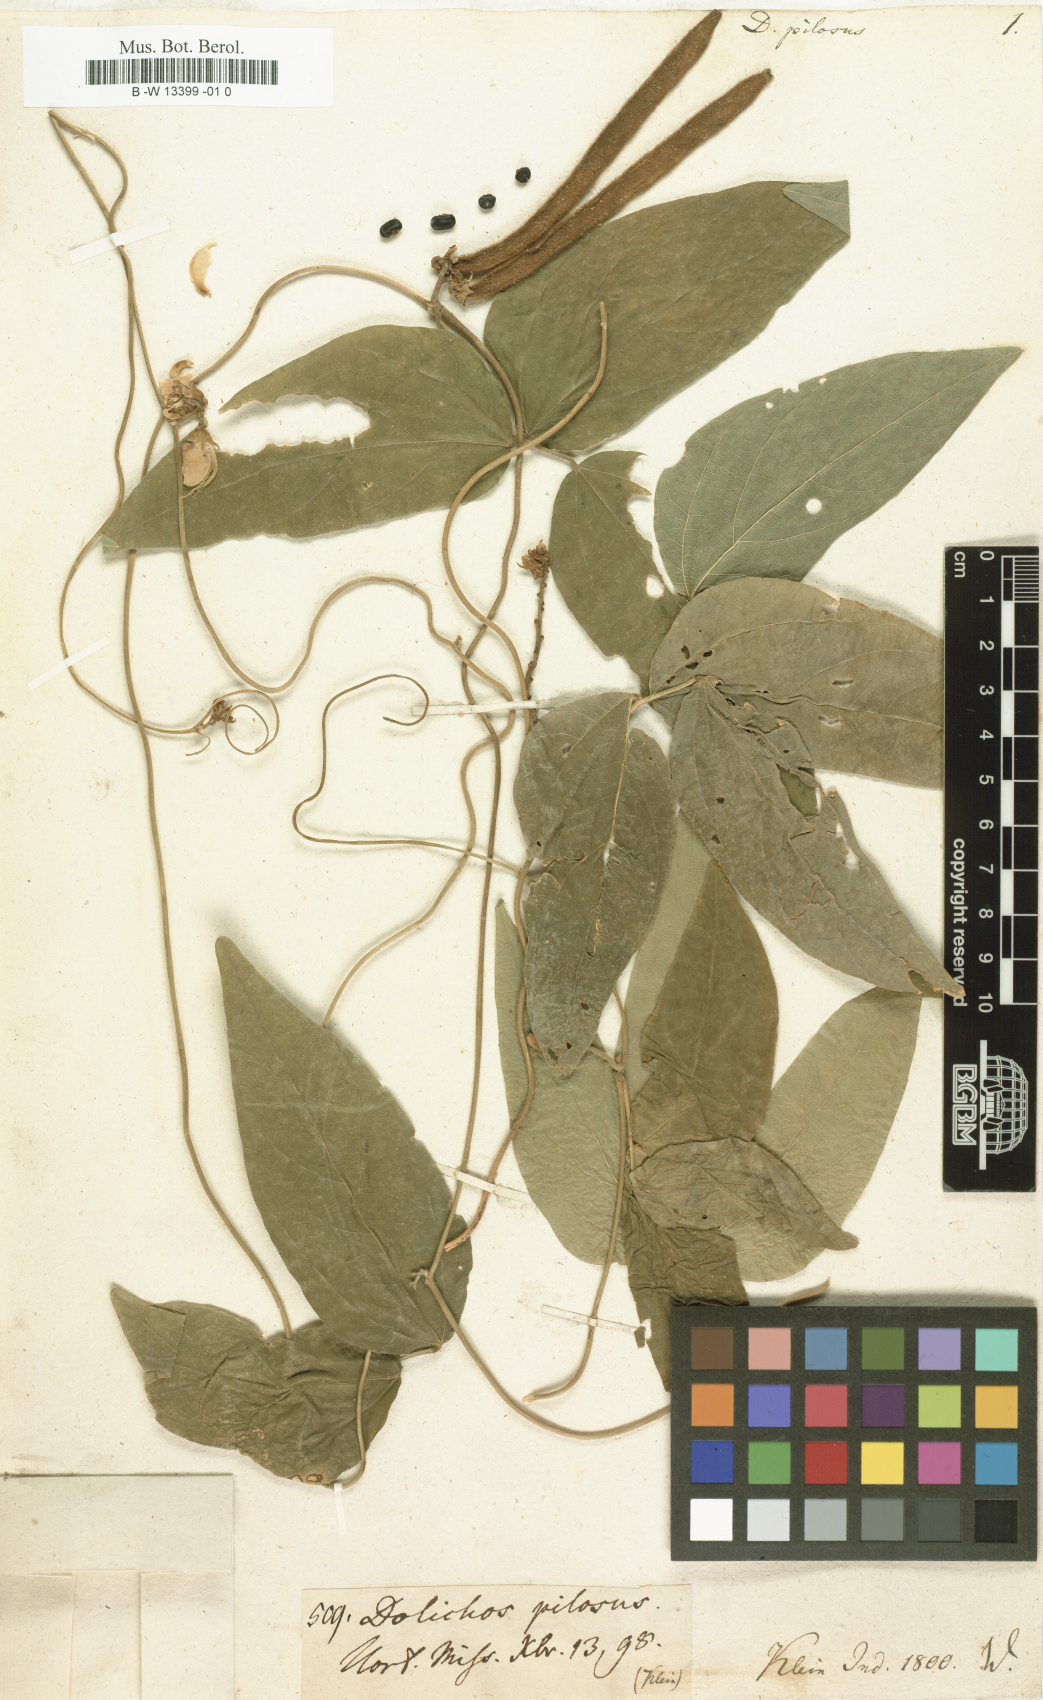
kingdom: Plantae
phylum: Tracheophyta
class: Magnoliopsida
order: Fabales
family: Fabaceae
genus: Dysolobium
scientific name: Dysolobium pilosum
